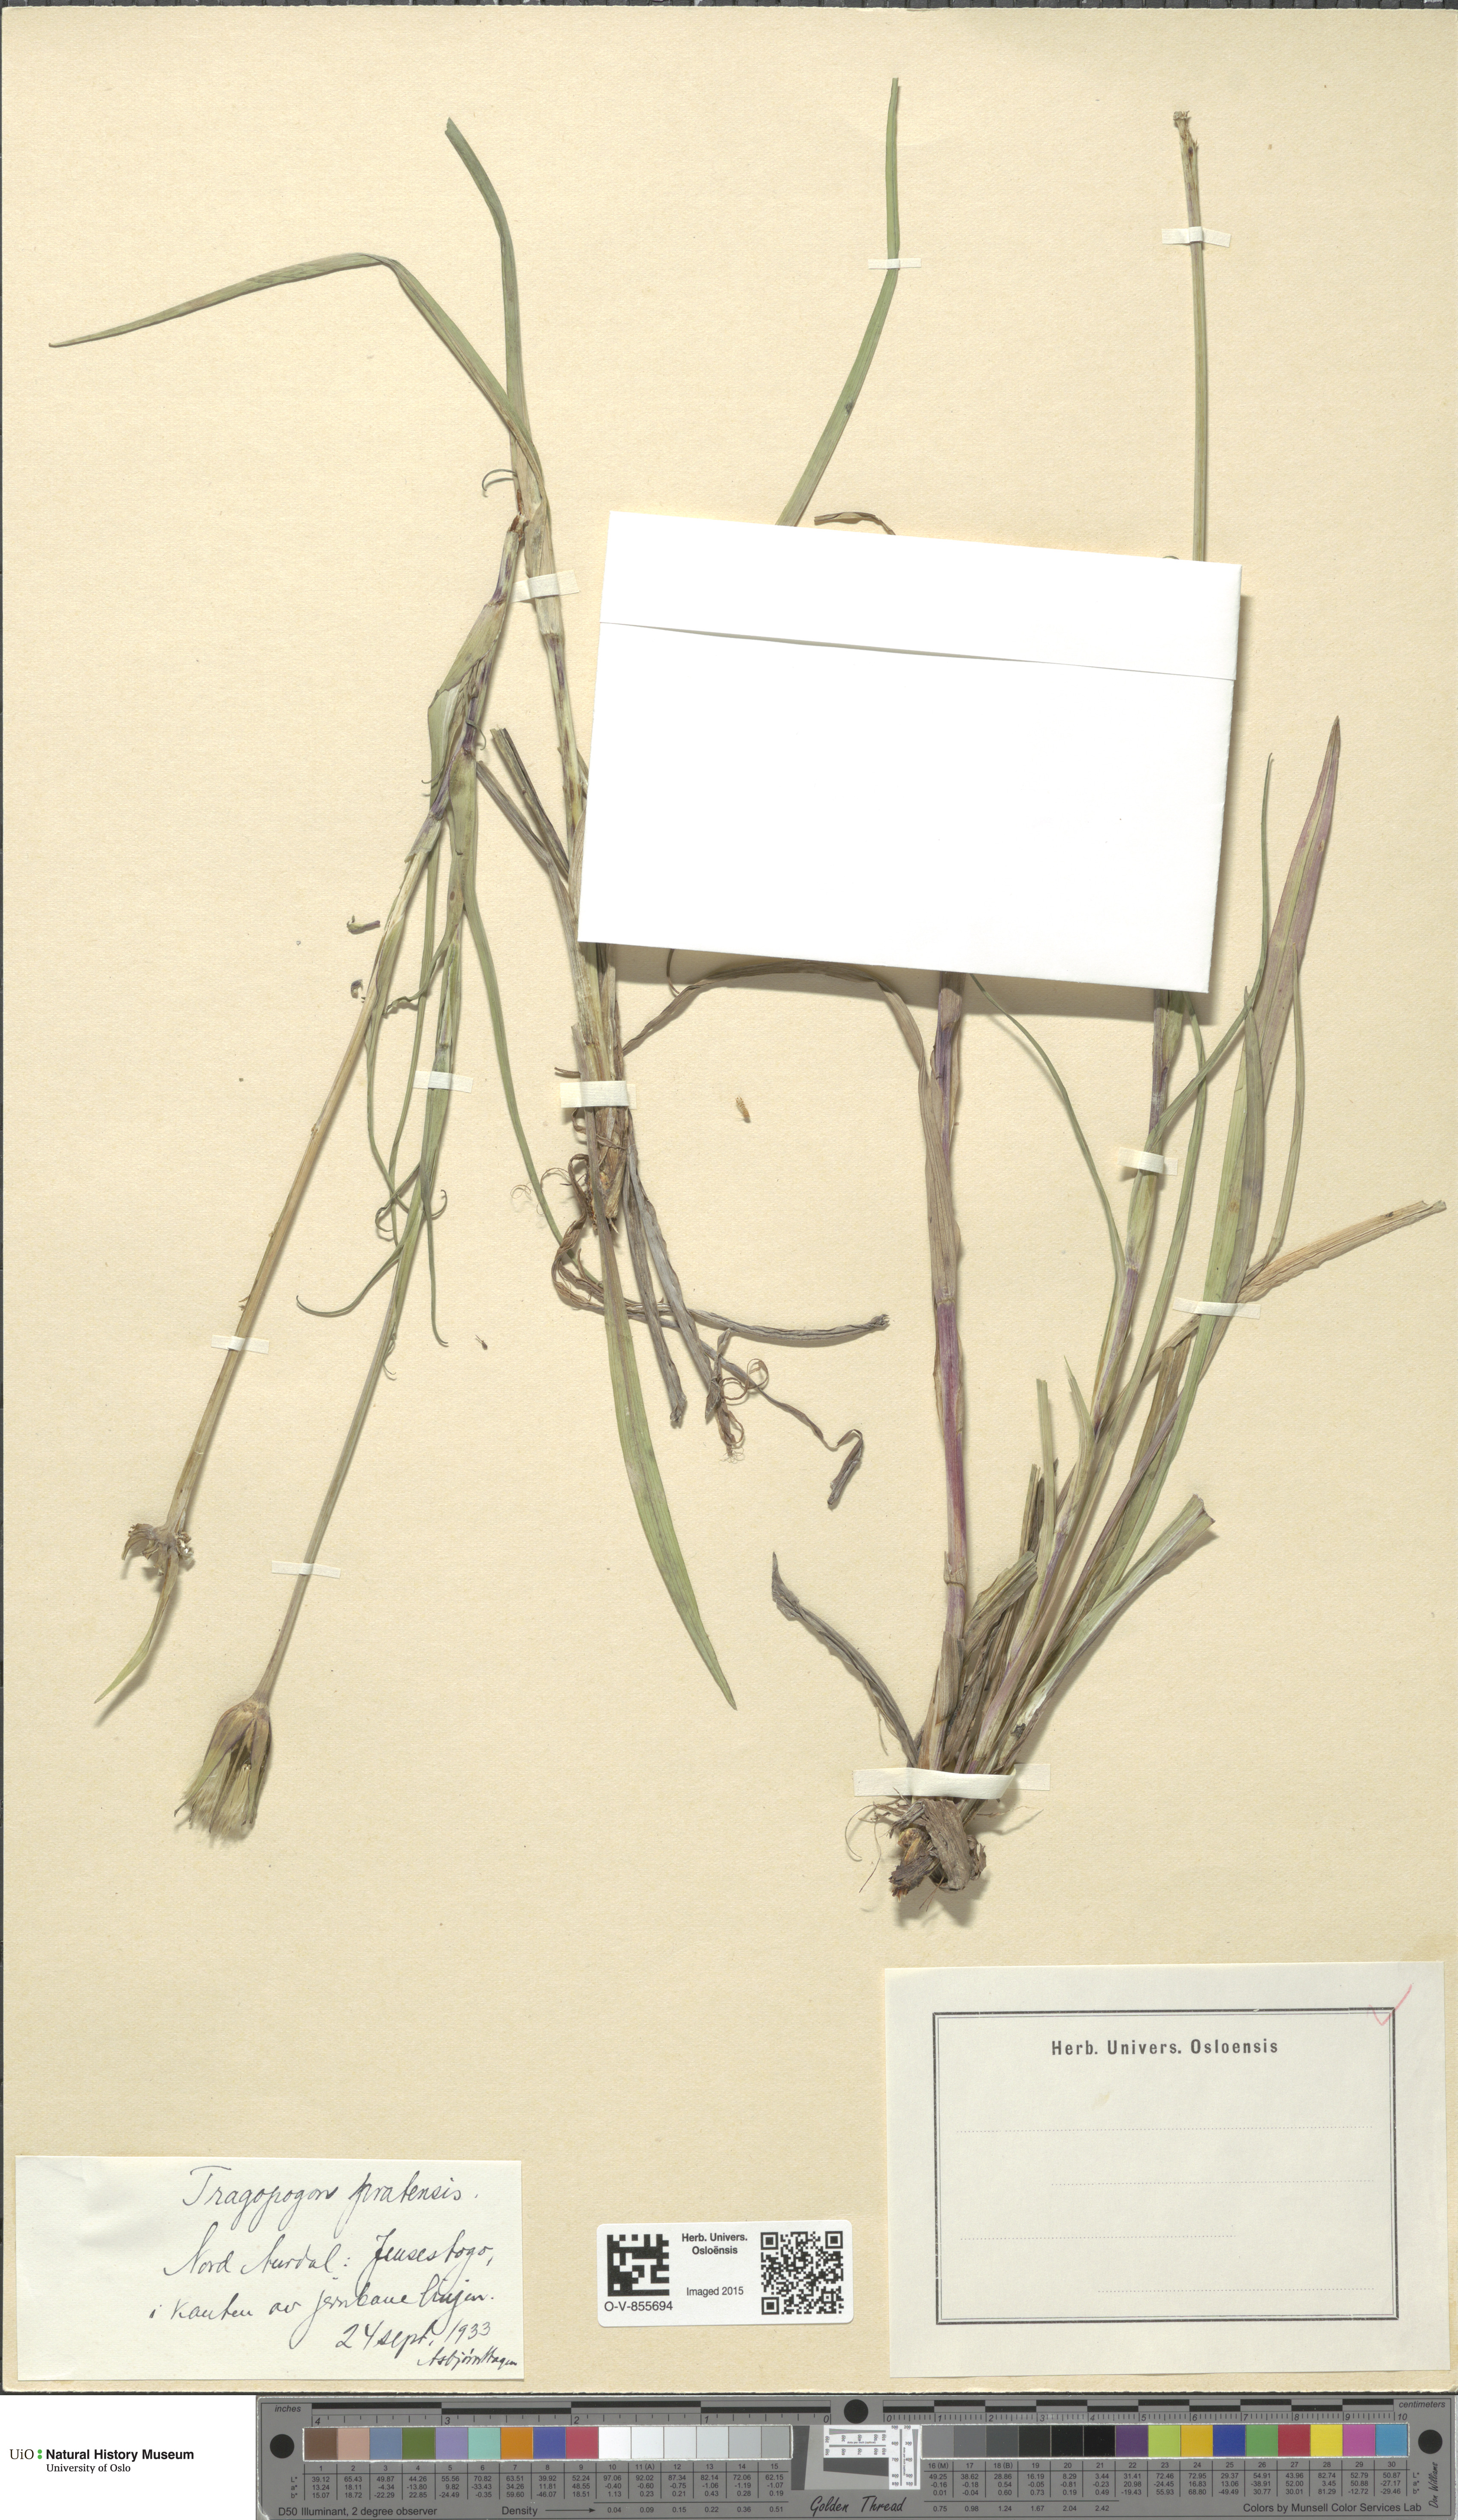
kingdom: Plantae
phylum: Tracheophyta
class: Magnoliopsida
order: Asterales
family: Asteraceae
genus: Tragopogon
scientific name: Tragopogon pratensis
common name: Goat's-beard
